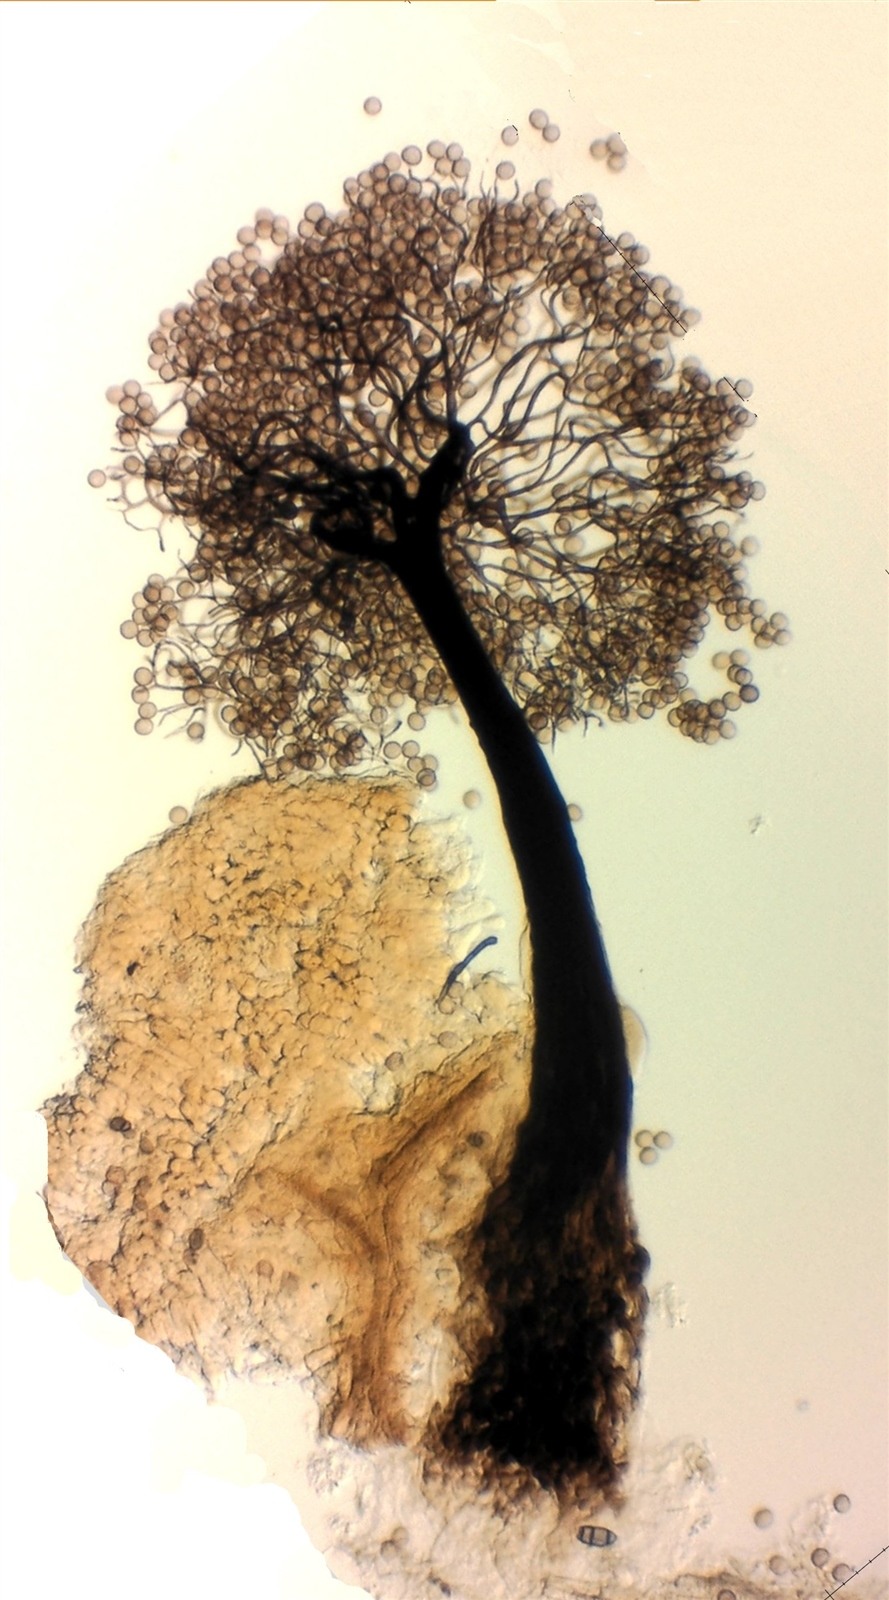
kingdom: Protozoa
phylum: Mycetozoa
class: Myxomycetes
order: Stemonitidales
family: Stemonitidaceae
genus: Paradiacheopsis
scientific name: Paradiacheopsis rigida
